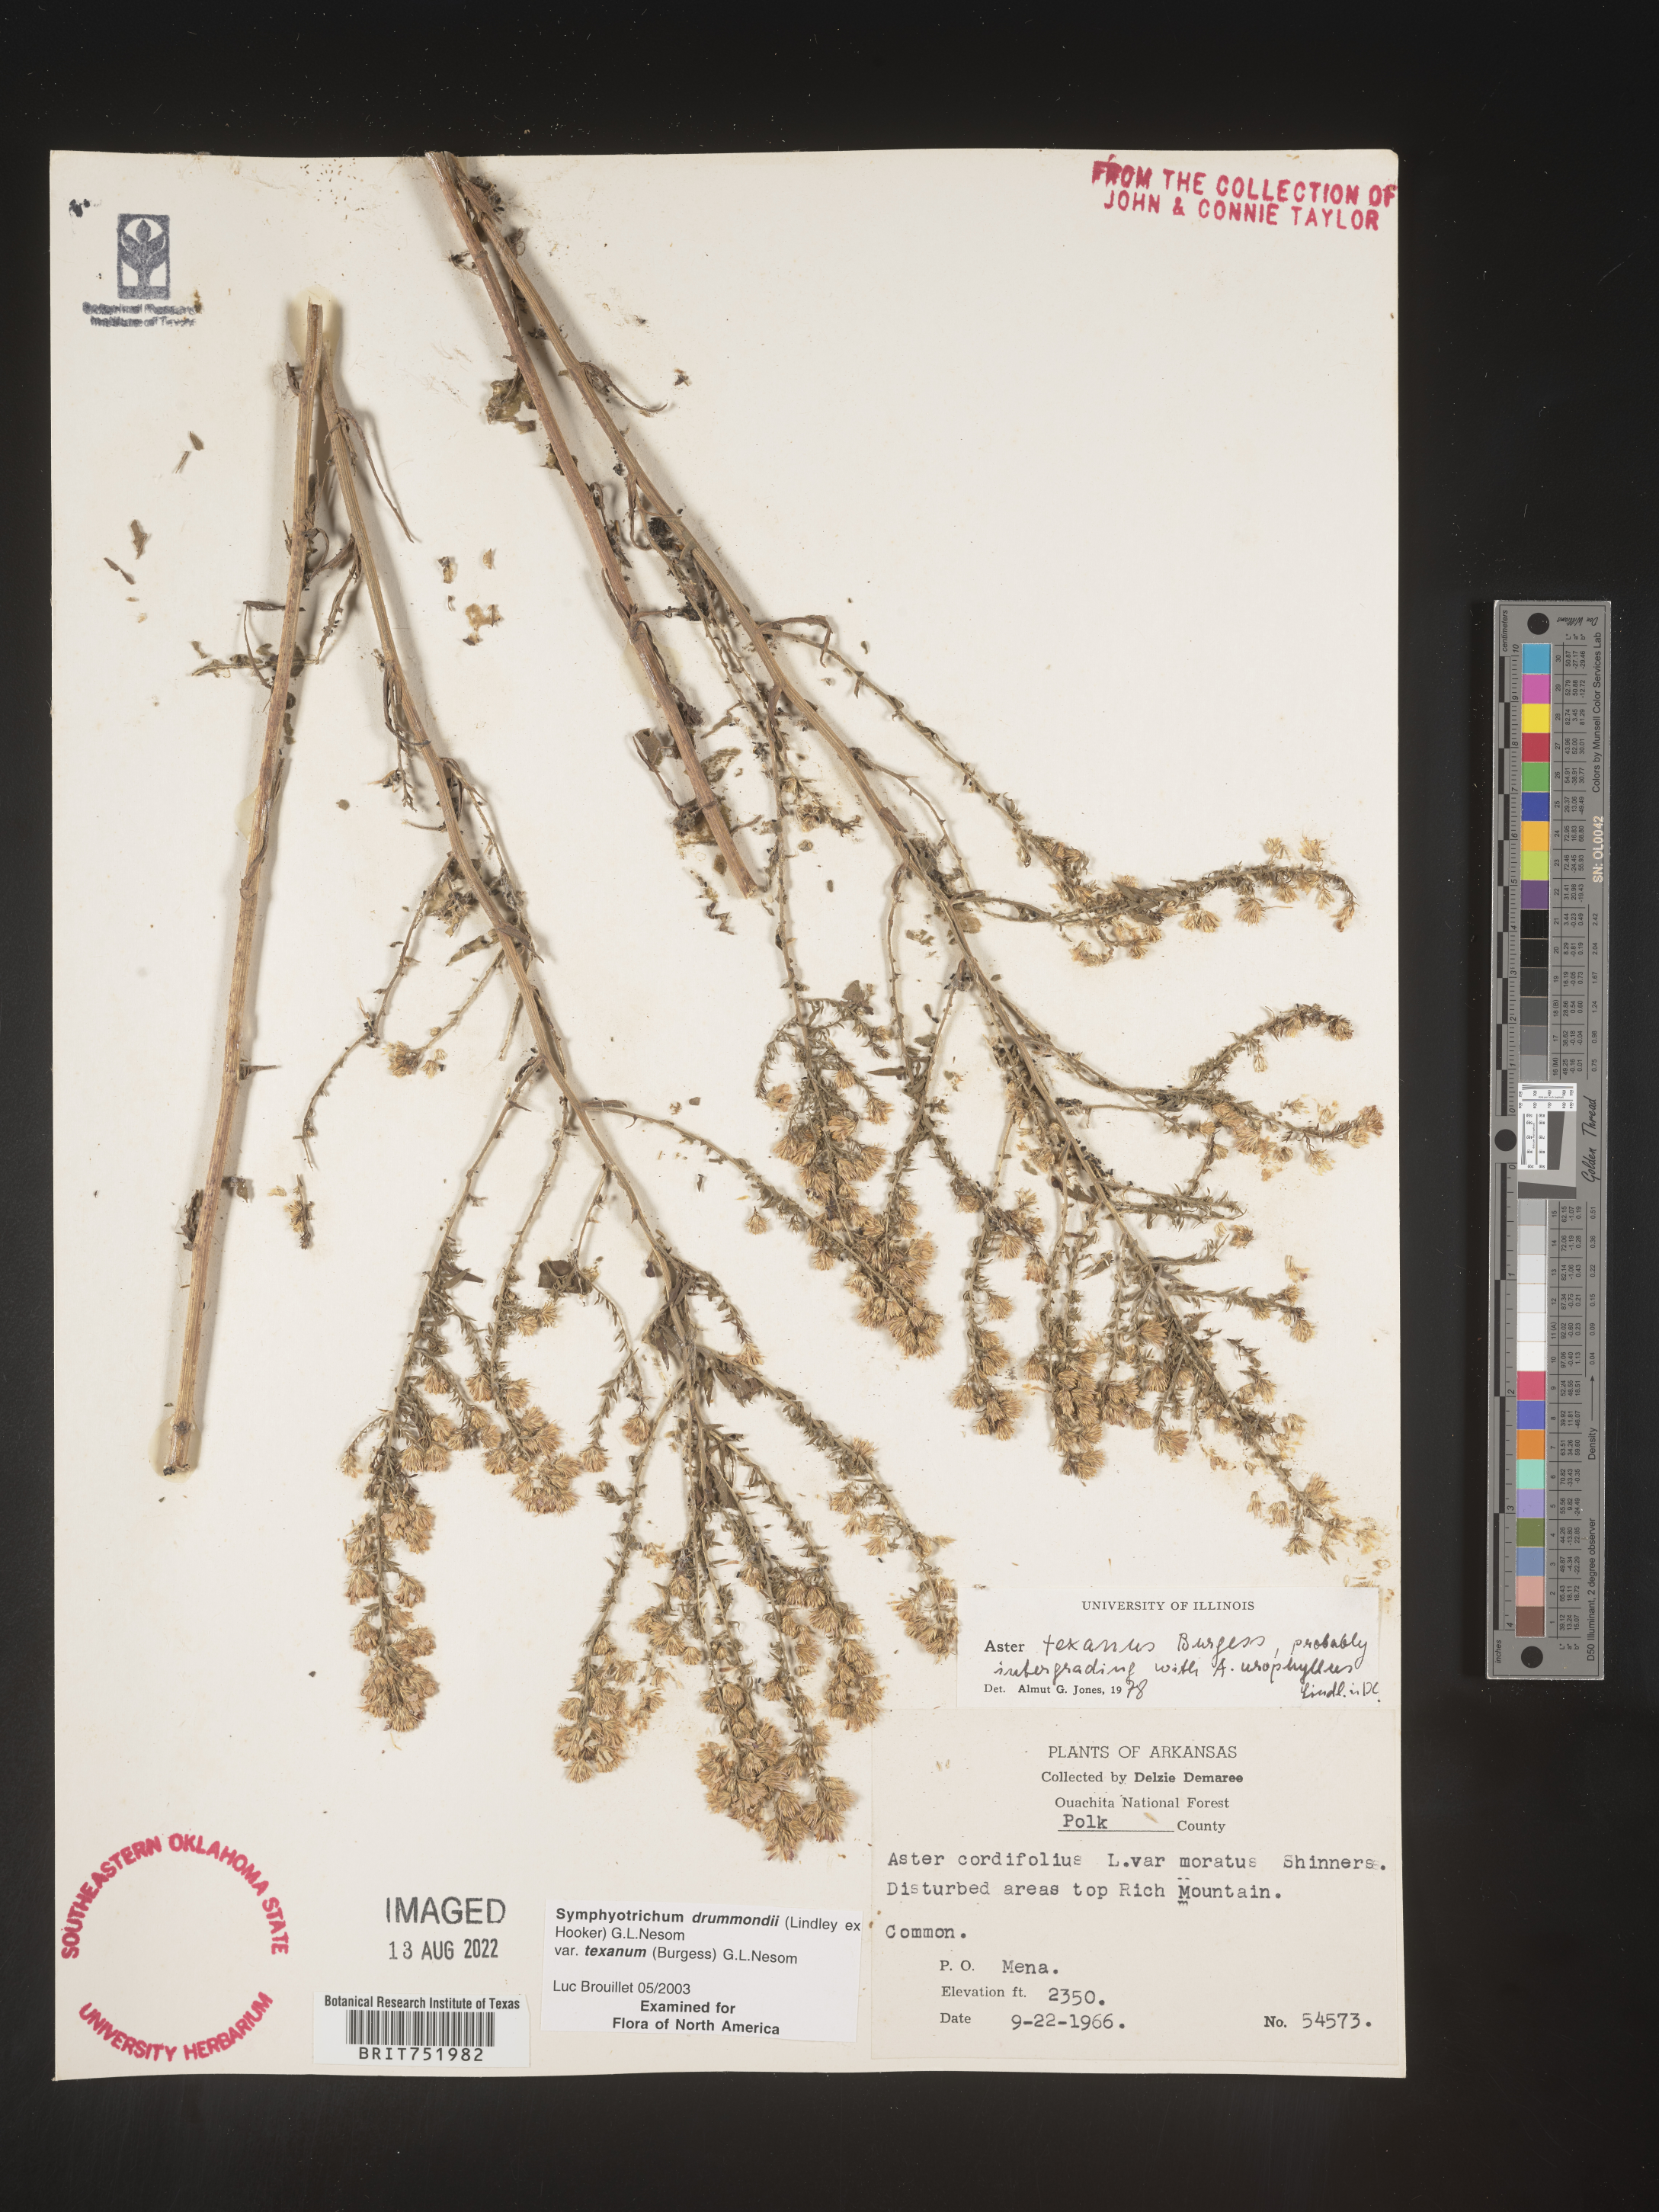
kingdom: Plantae
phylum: Tracheophyta
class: Magnoliopsida
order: Asterales
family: Asteraceae
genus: Symphyotrichum
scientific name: Symphyotrichum drummondii
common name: Drummond's aster
